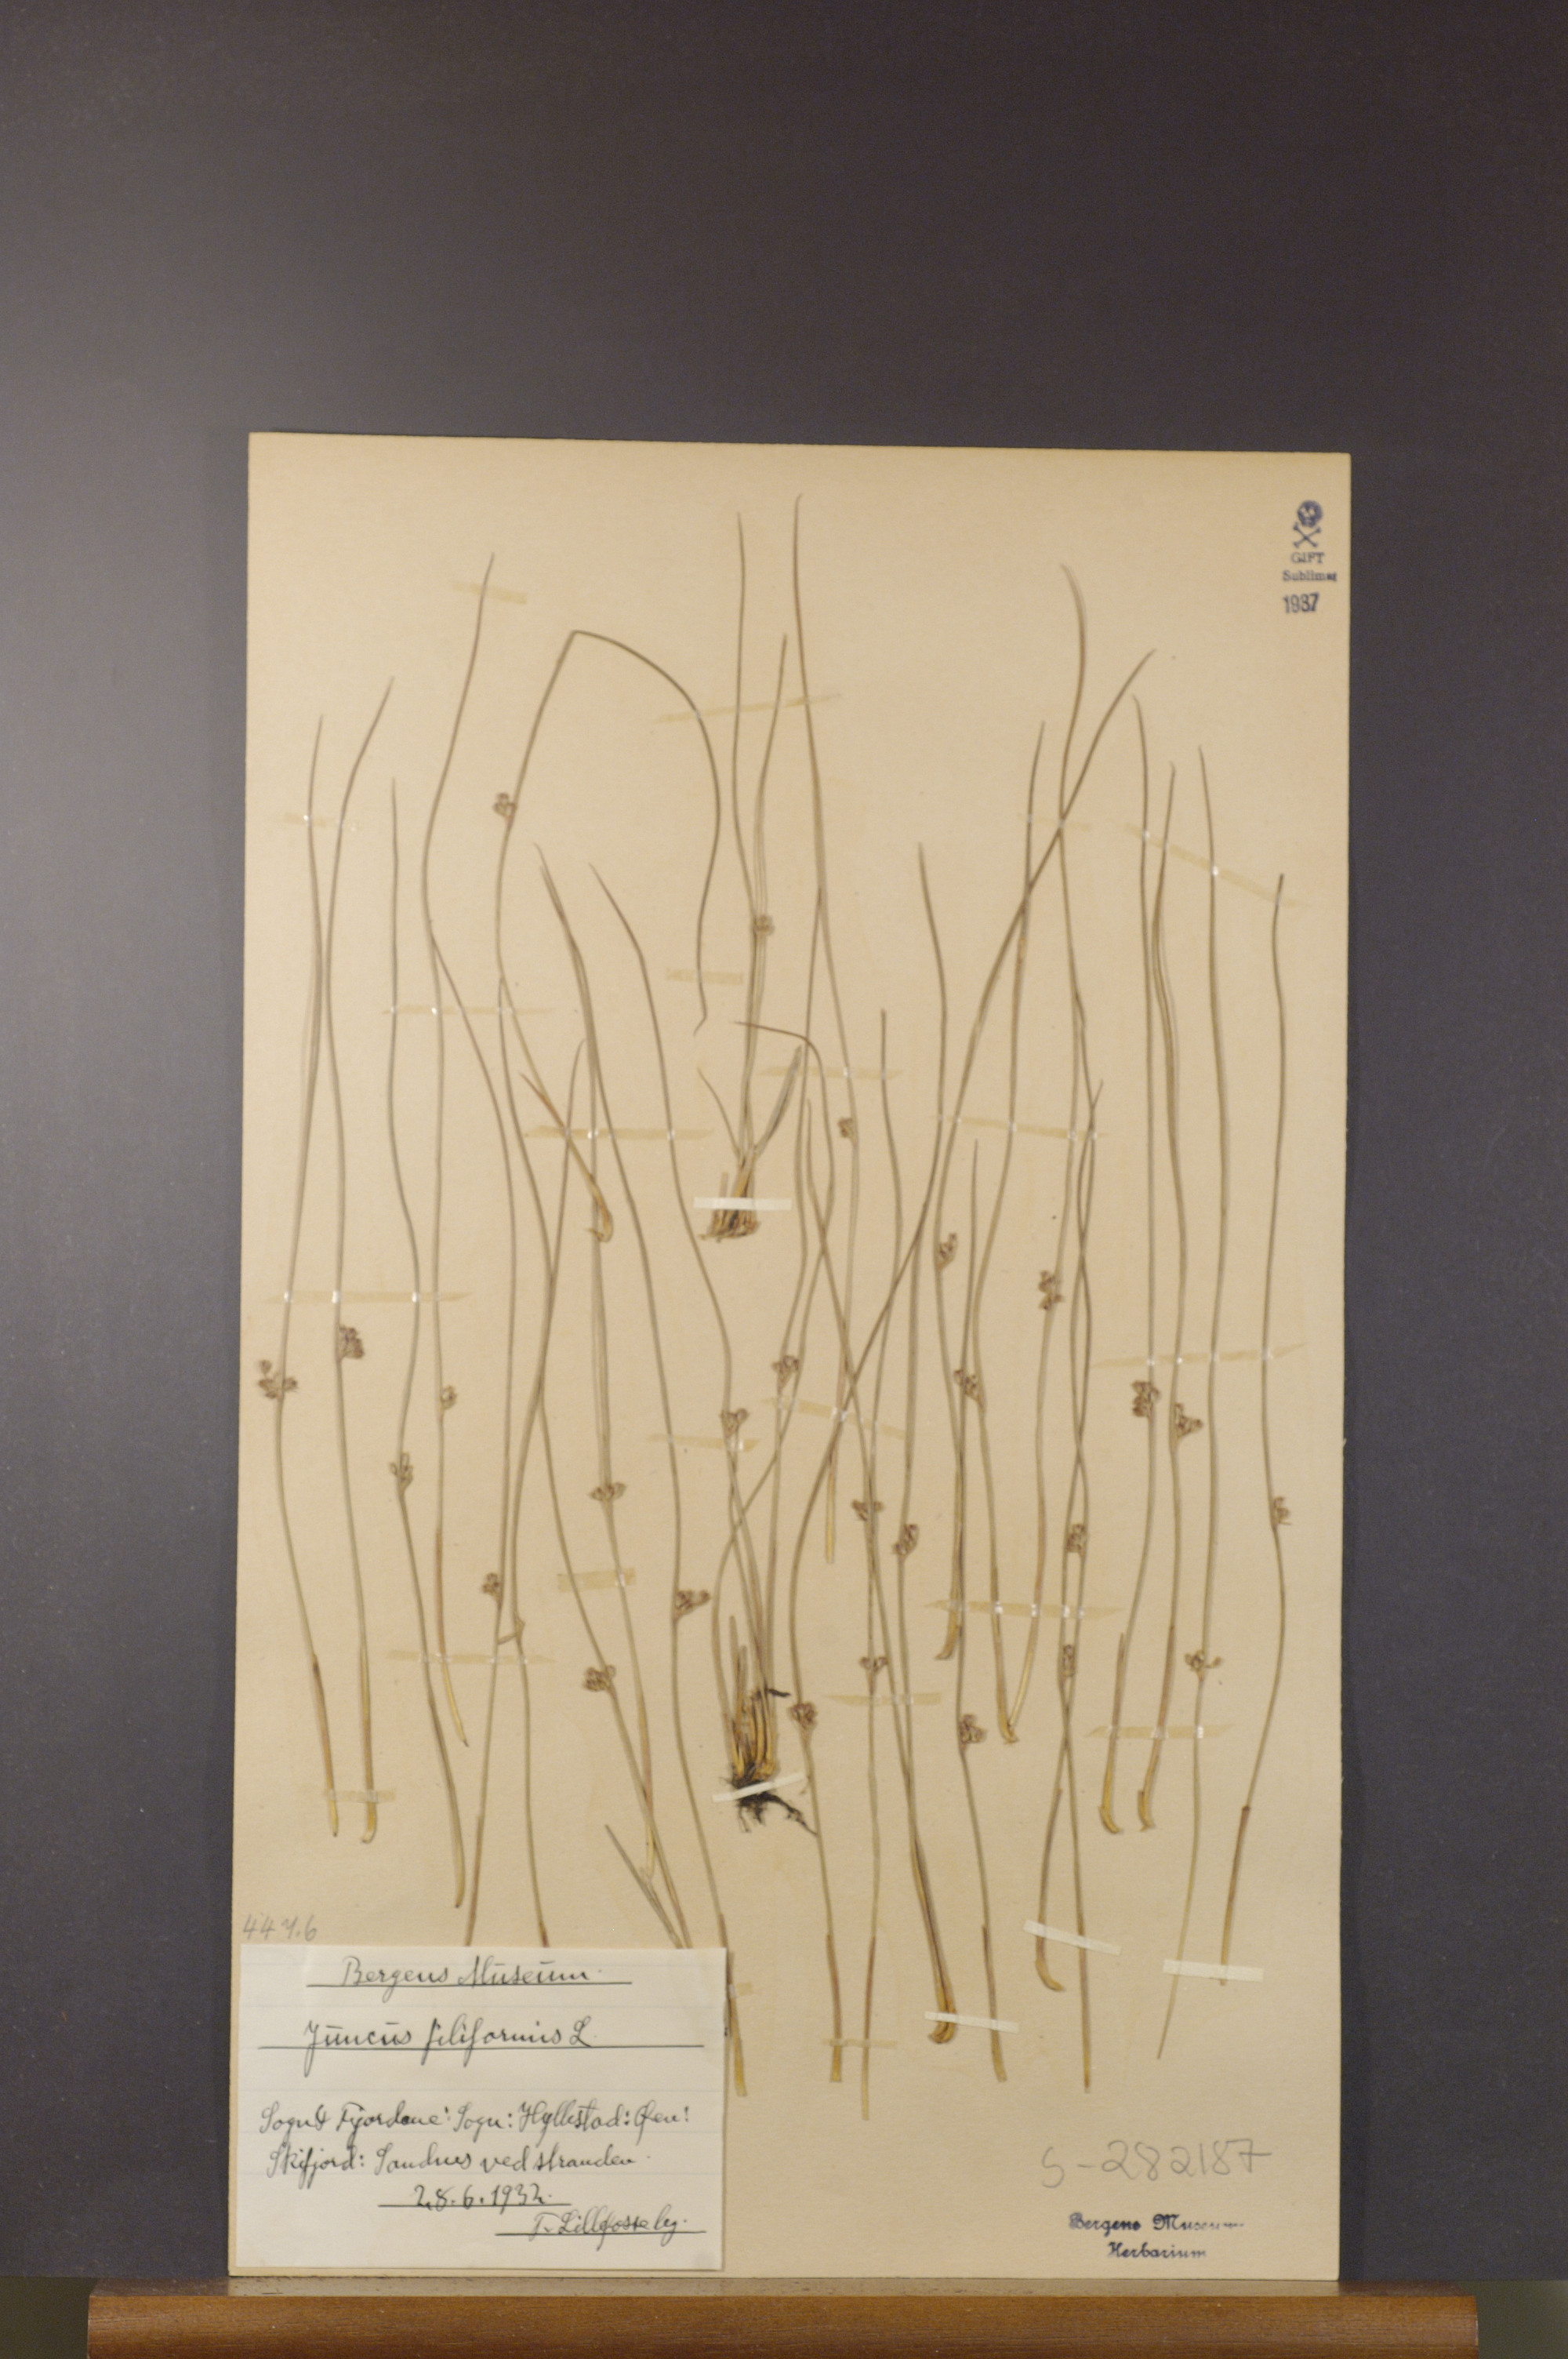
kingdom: Plantae
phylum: Tracheophyta
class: Liliopsida
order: Poales
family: Juncaceae
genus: Juncus
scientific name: Juncus filiformis
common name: Thread rush
